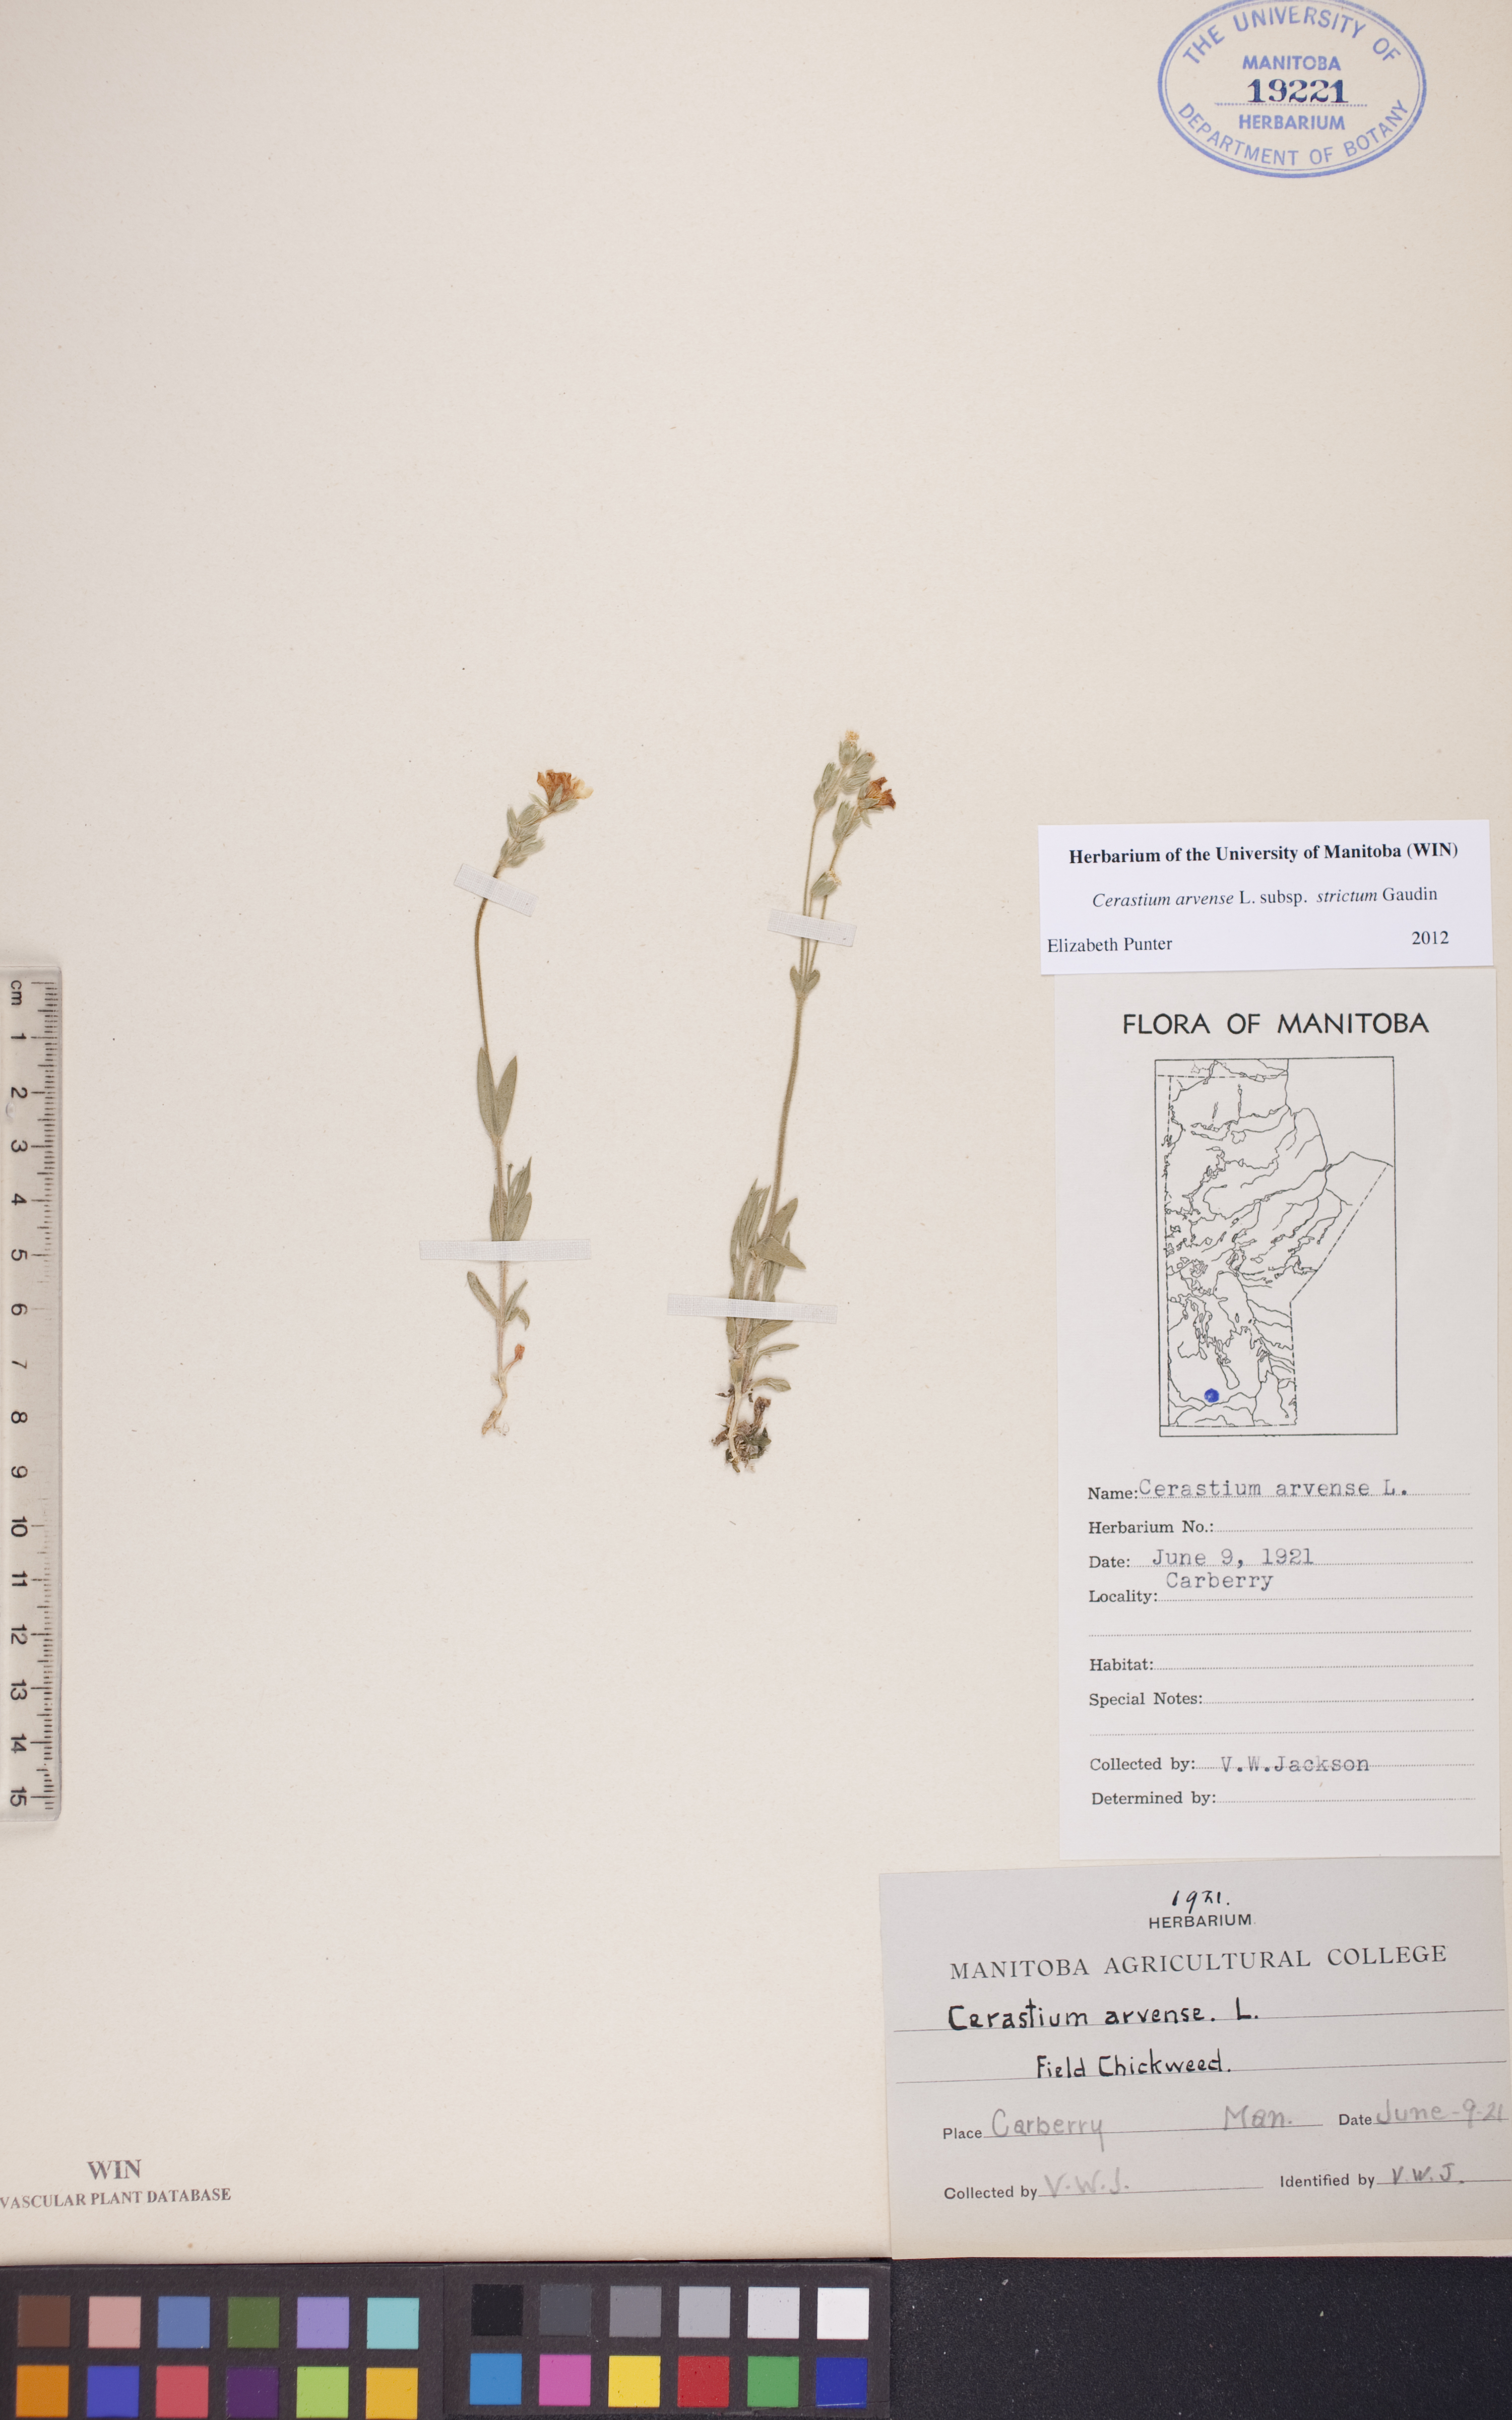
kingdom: Plantae
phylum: Tracheophyta
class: Magnoliopsida
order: Caryophyllales
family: Caryophyllaceae
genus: Cerastium
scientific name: Cerastium elongatum
